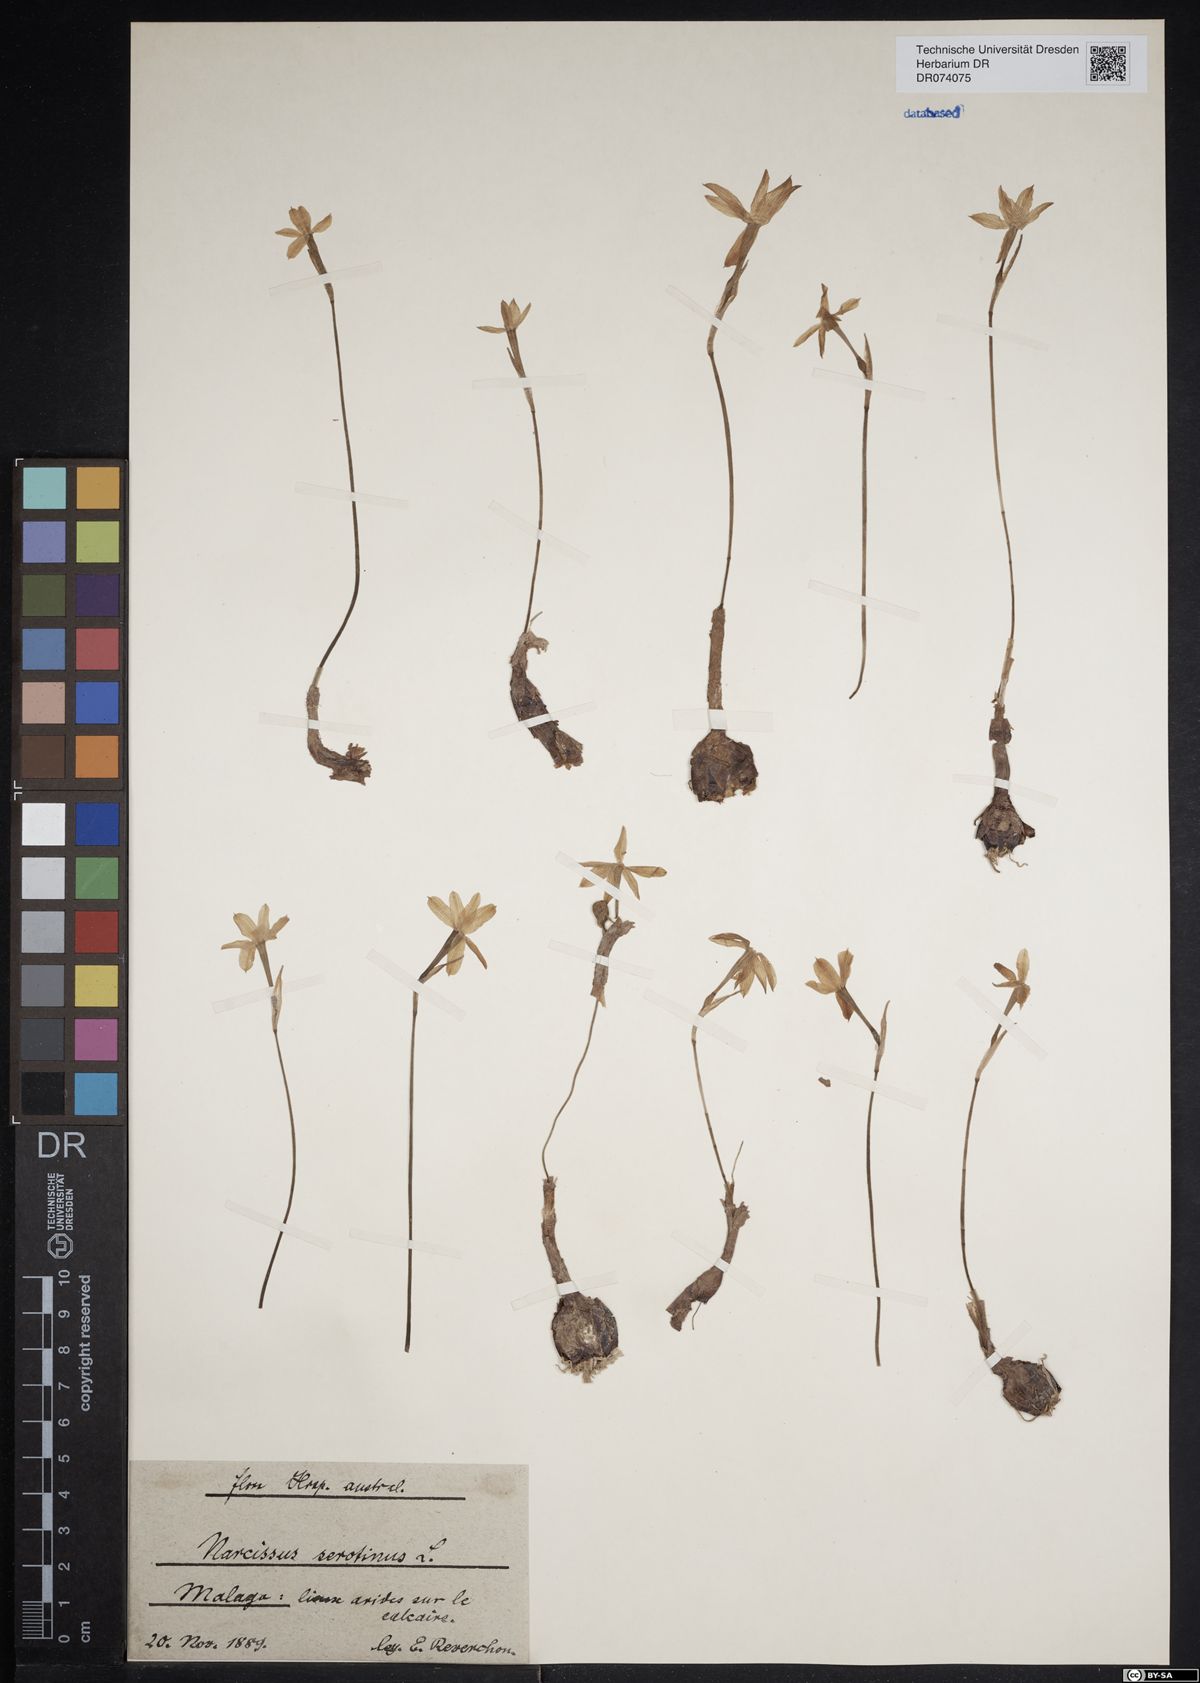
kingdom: Plantae
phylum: Tracheophyta
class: Liliopsida
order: Asparagales
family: Amaryllidaceae
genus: Narcissus
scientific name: Narcissus serotinus
